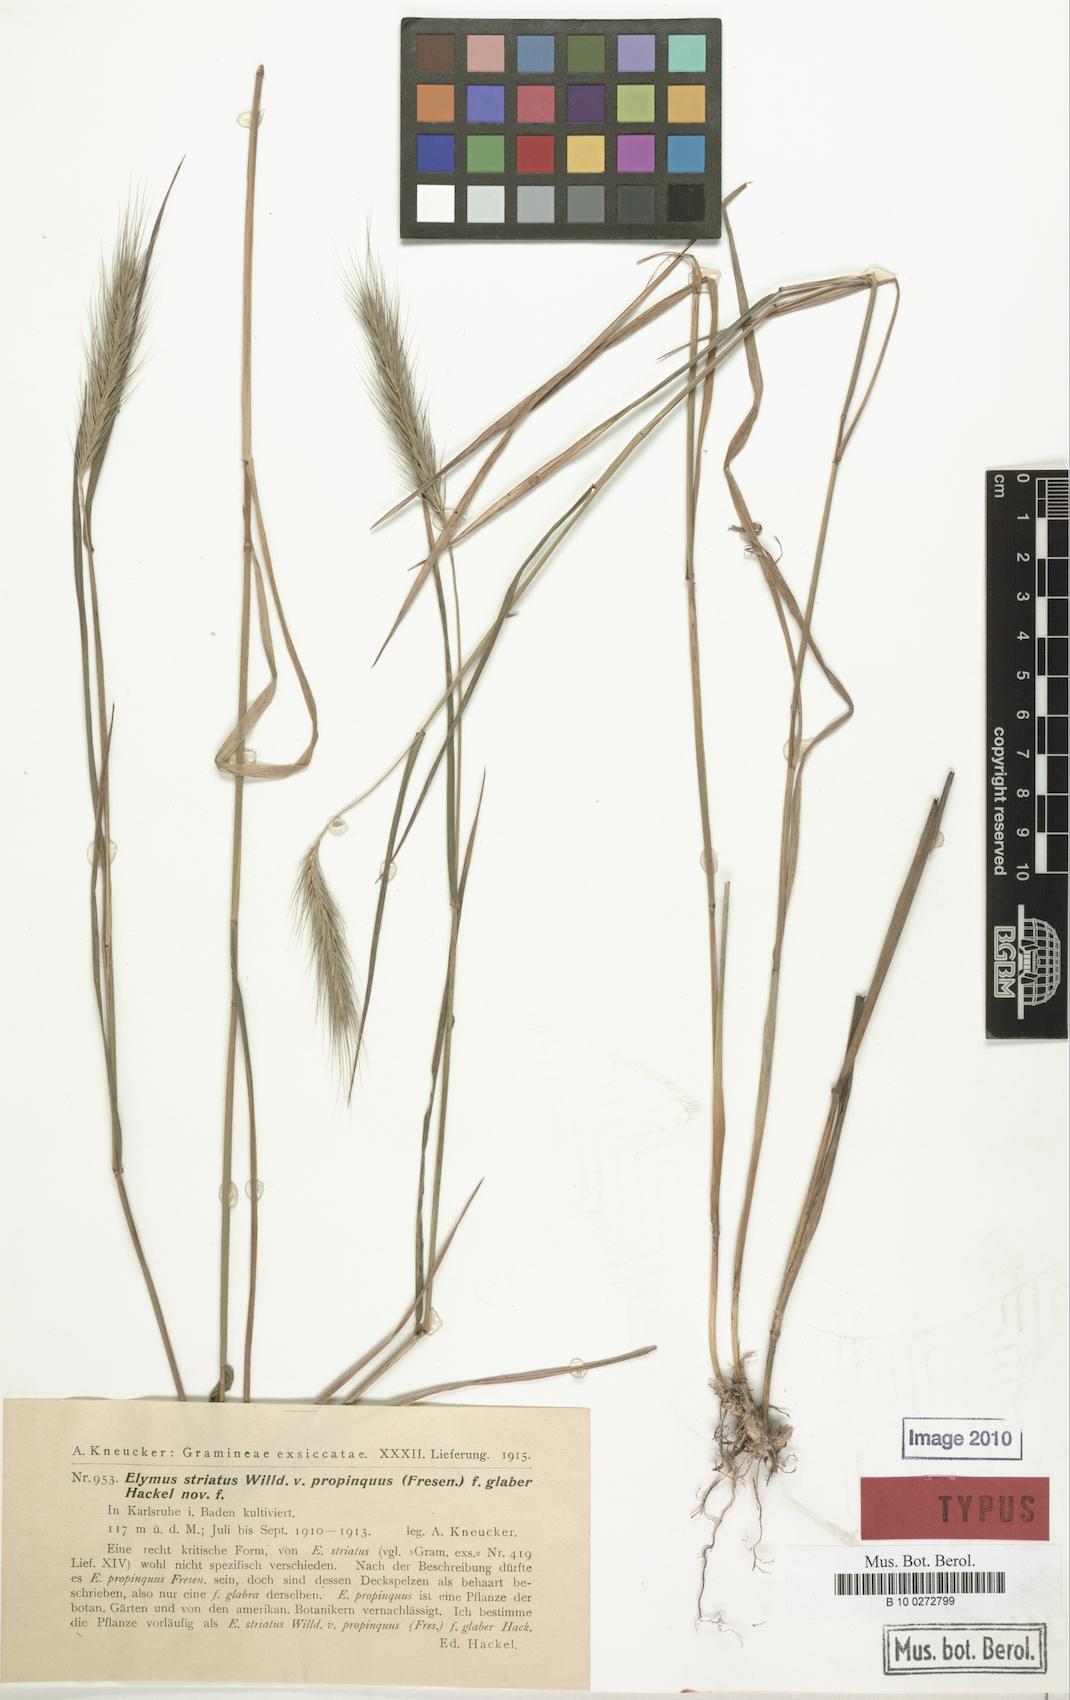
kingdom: Plantae
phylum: Tracheophyta
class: Liliopsida
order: Poales
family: Poaceae
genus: Elymus
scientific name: Elymus villosus
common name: Downy wild rye
